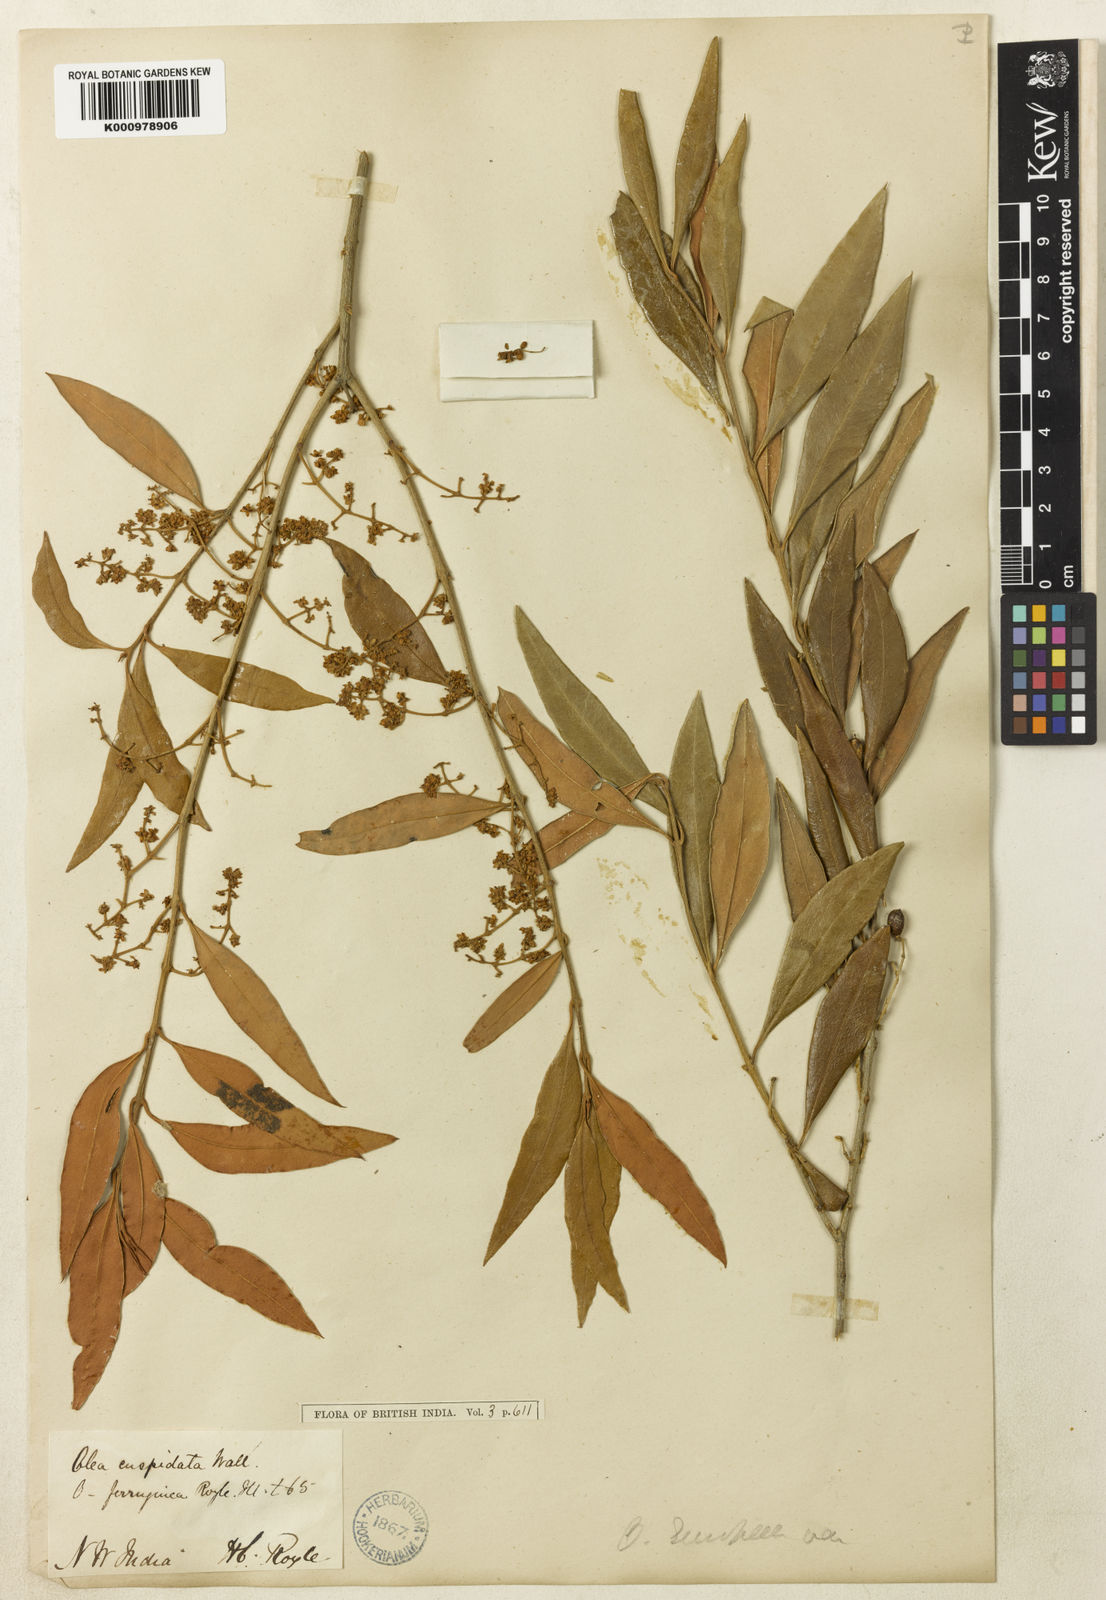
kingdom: Plantae
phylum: Tracheophyta
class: Magnoliopsida
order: Lamiales
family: Oleaceae
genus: Olea
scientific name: Olea
